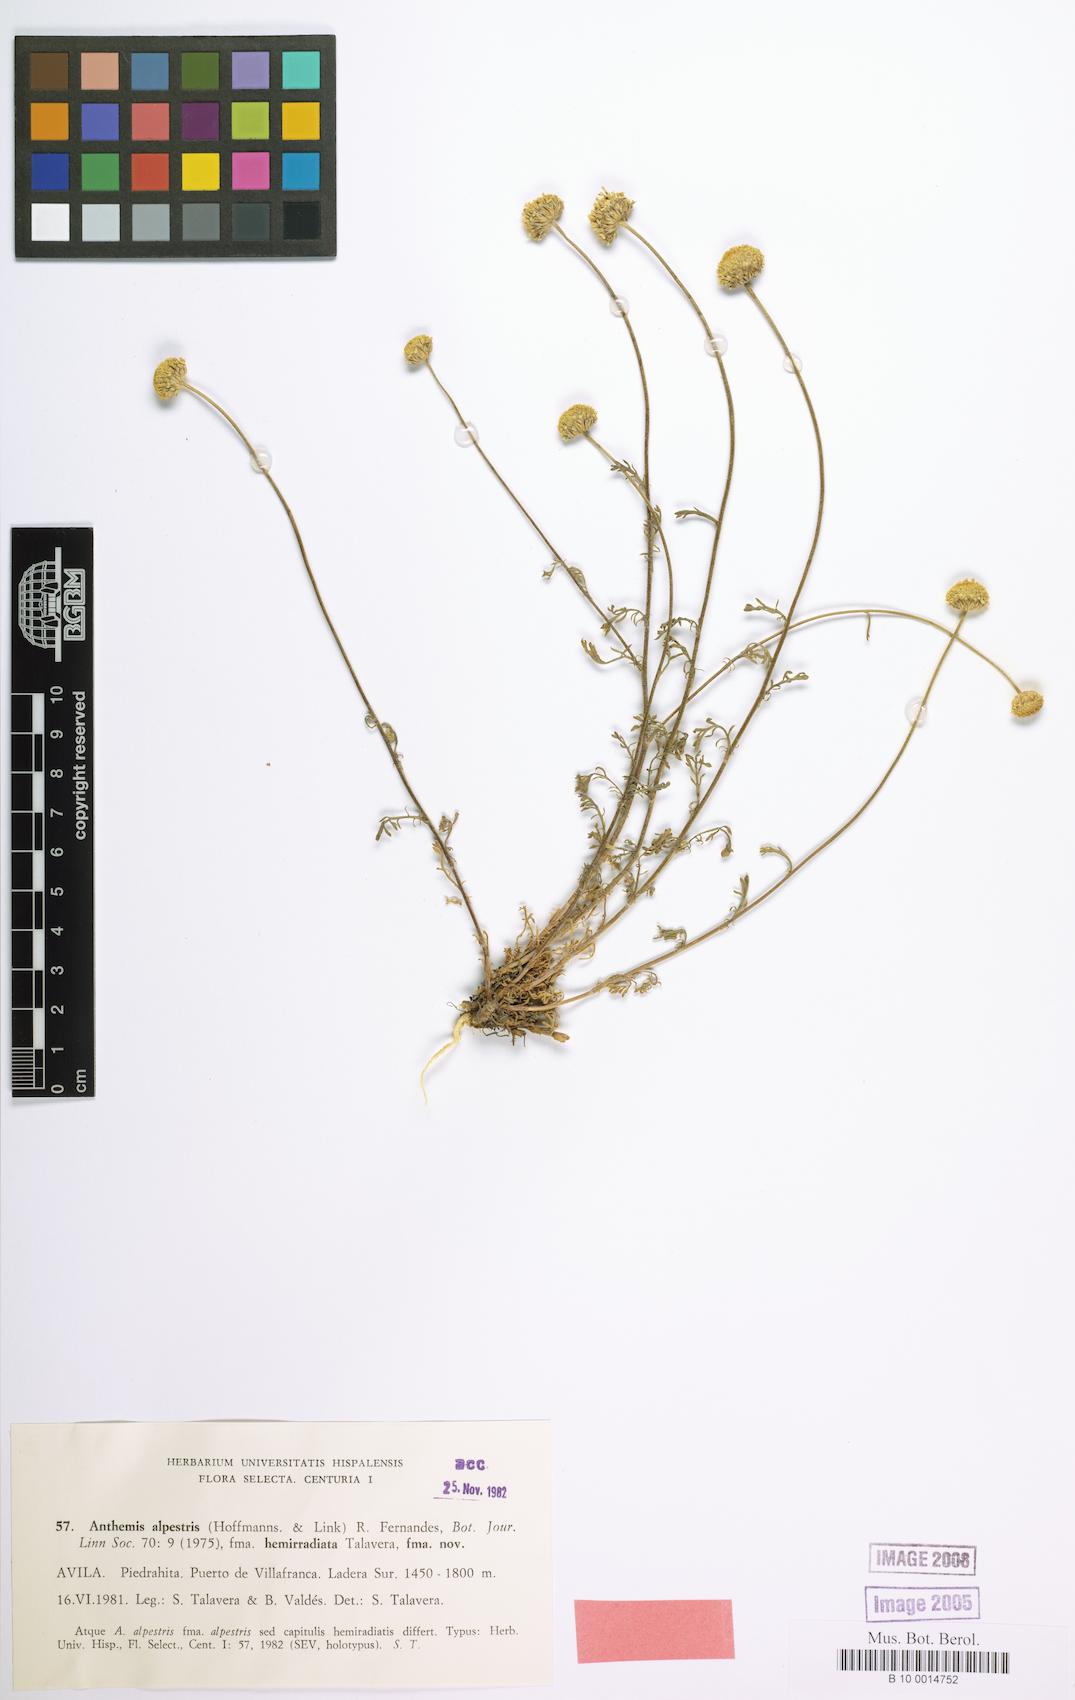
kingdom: Plantae
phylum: Tracheophyta
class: Magnoliopsida
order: Asterales
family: Asteraceae
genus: Anthemis
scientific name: Anthemis alpestris
